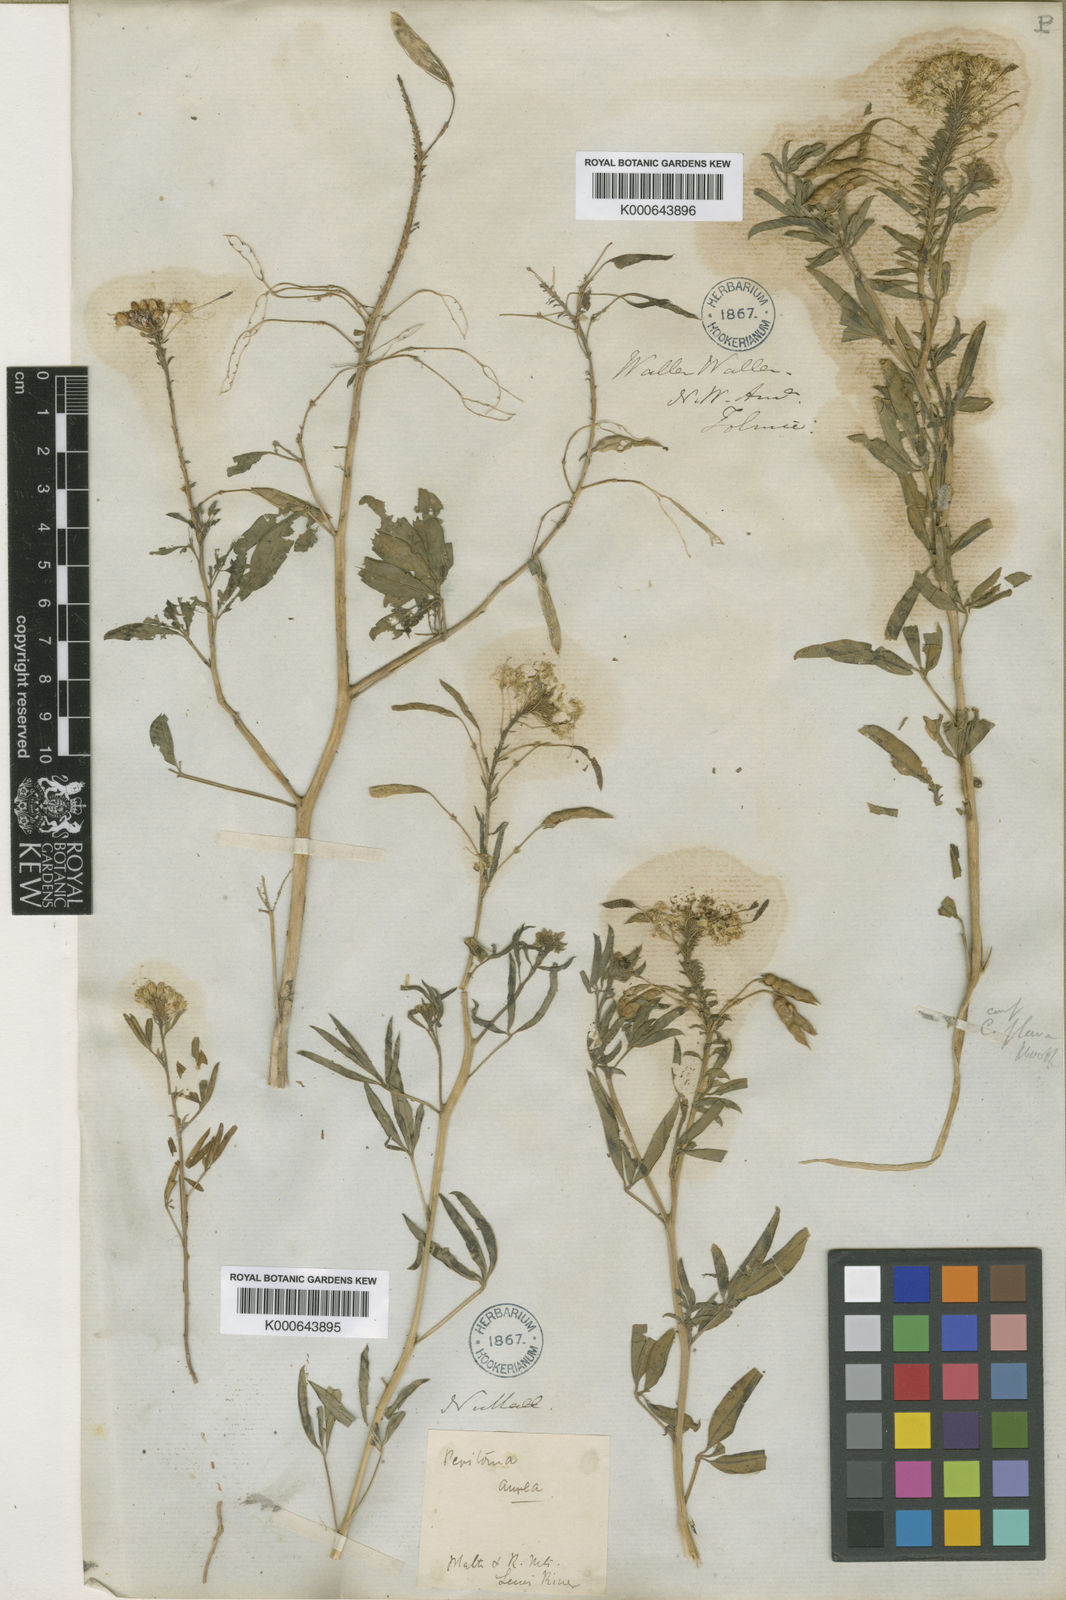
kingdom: Plantae
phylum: Tracheophyta
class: Magnoliopsida
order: Brassicales
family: Cleomaceae
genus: Cleomella
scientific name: Cleomella lutea
